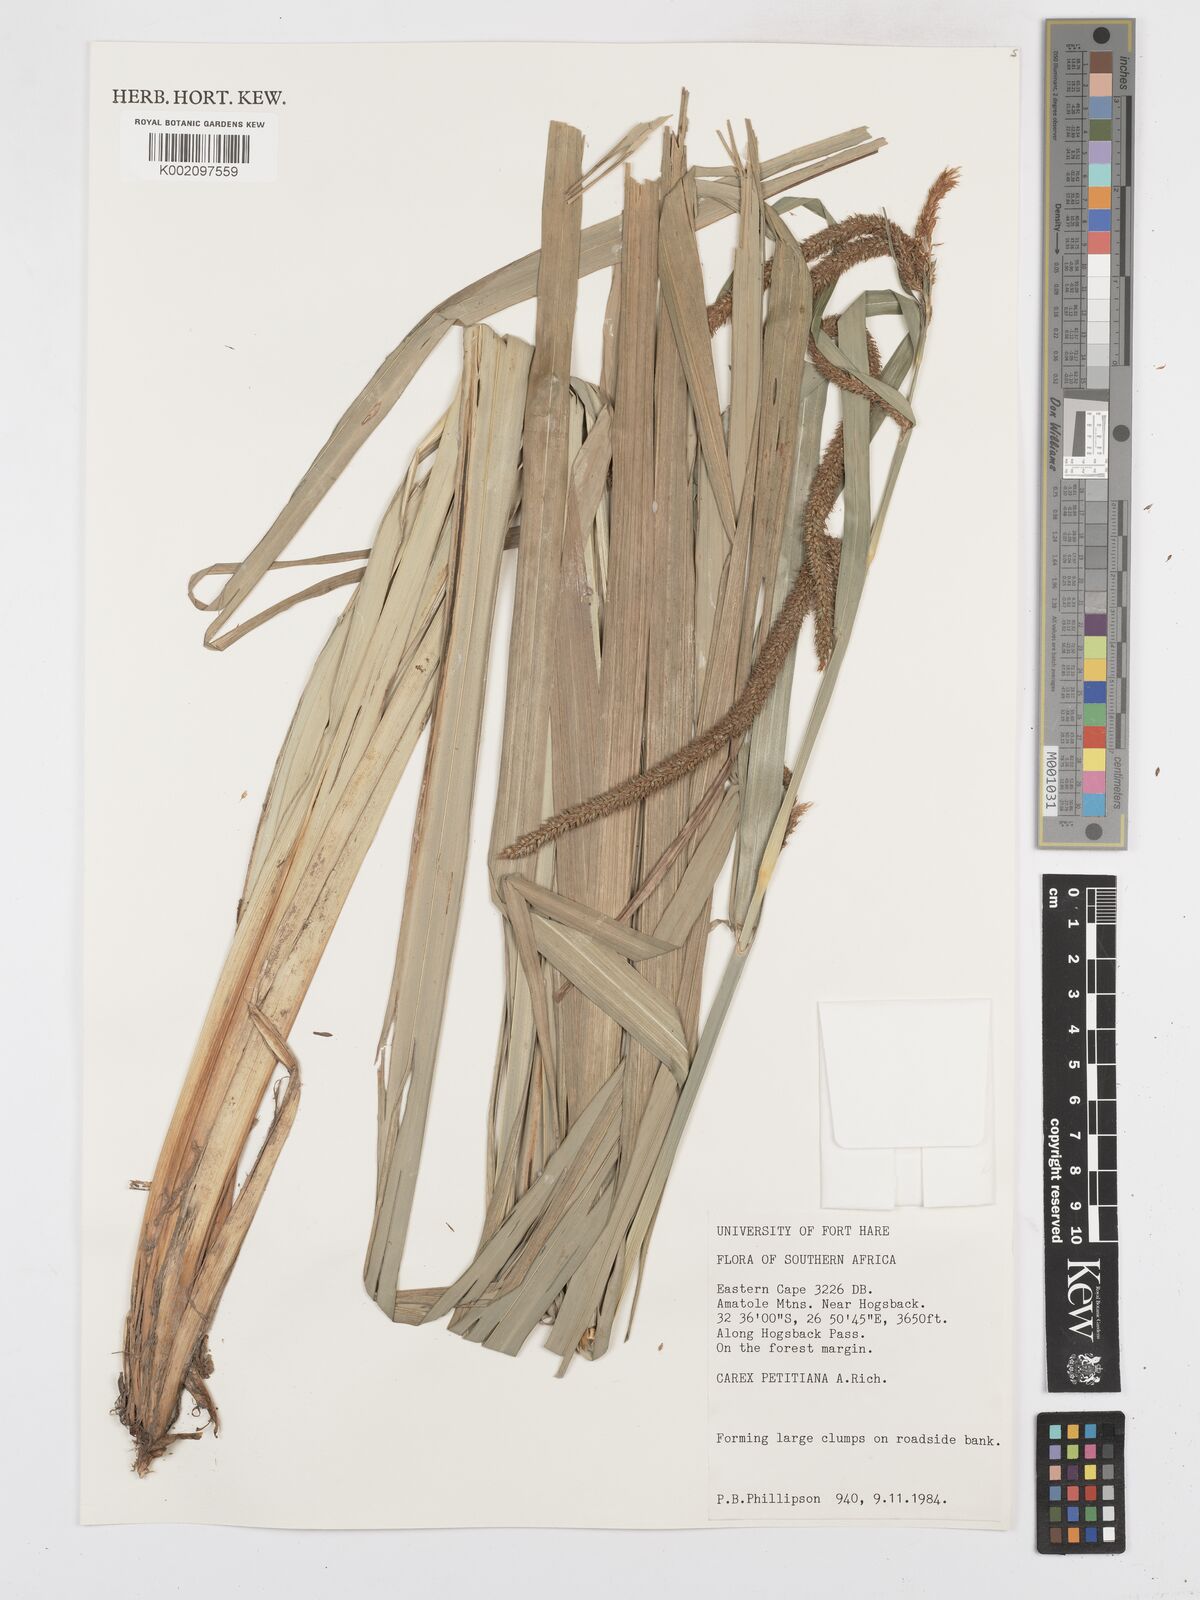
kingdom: Plantae
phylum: Tracheophyta
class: Liliopsida
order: Poales
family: Cyperaceae
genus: Carex
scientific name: Carex petitiana
